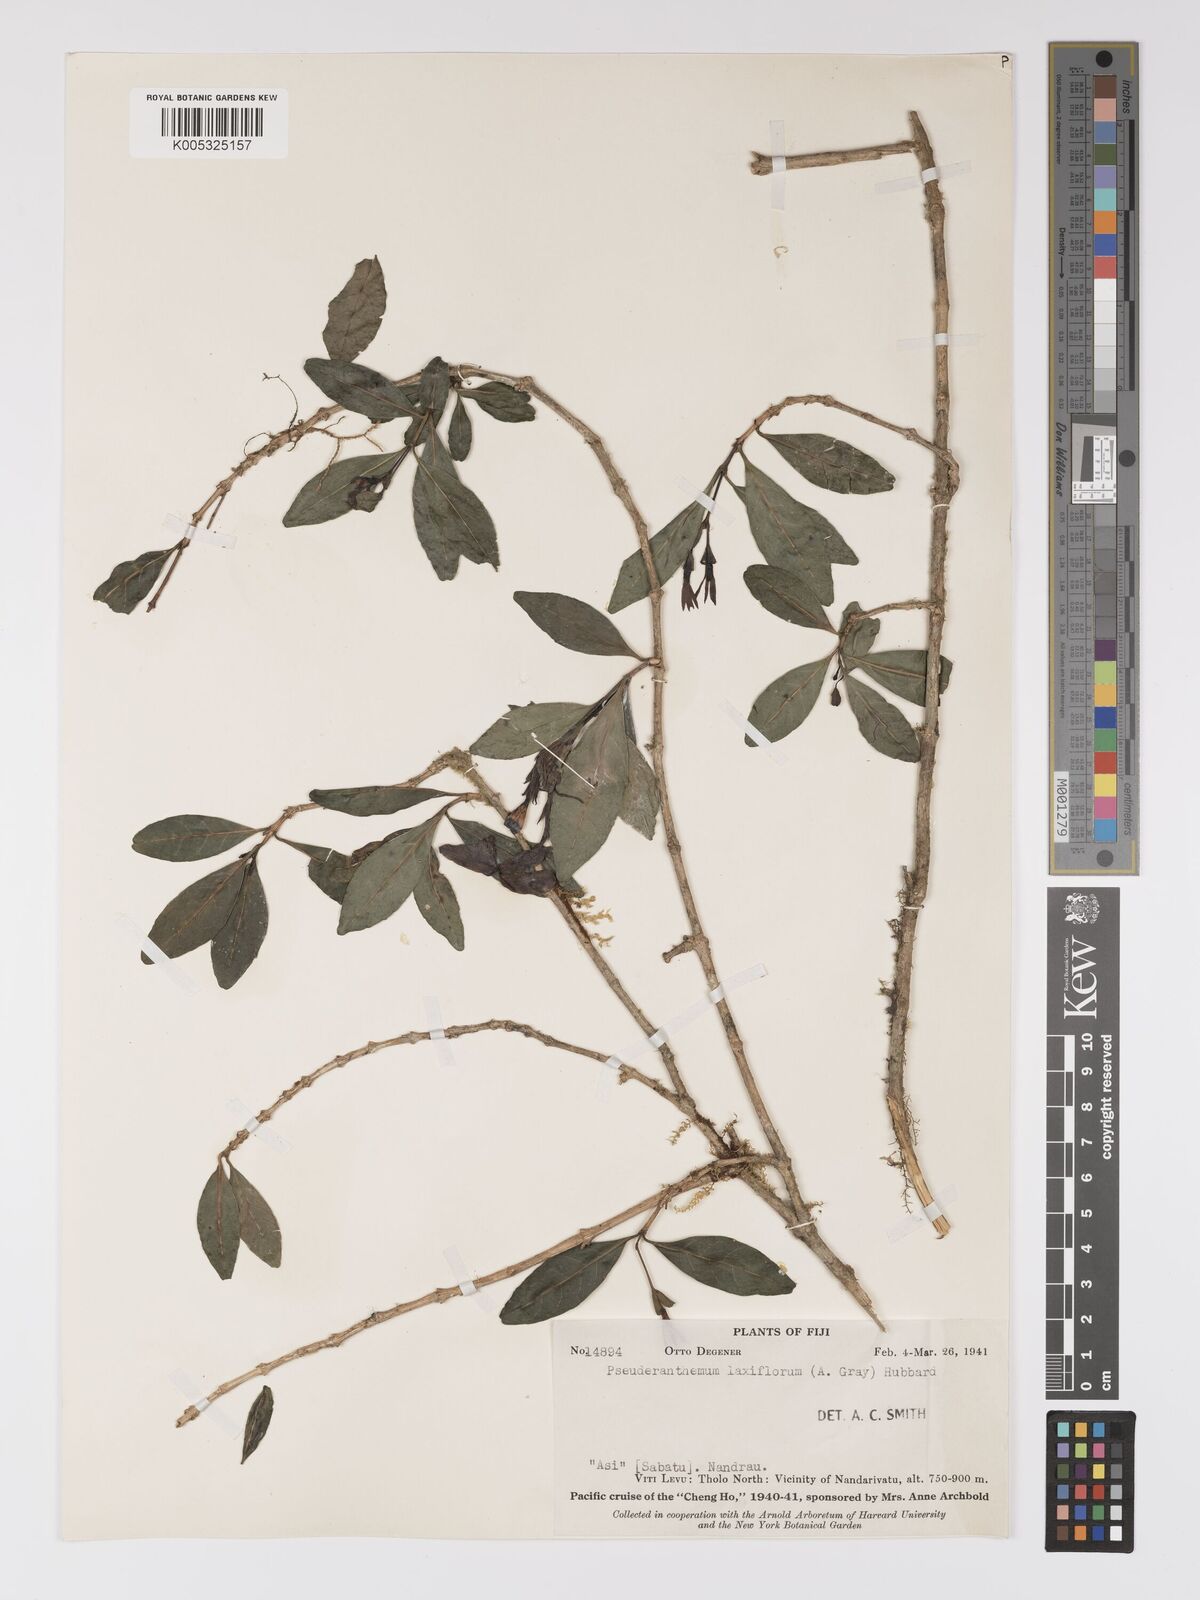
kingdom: Plantae
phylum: Tracheophyta
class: Magnoliopsida
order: Lamiales
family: Acanthaceae
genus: Pseuderanthemum
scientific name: Pseuderanthemum laxiflorum
